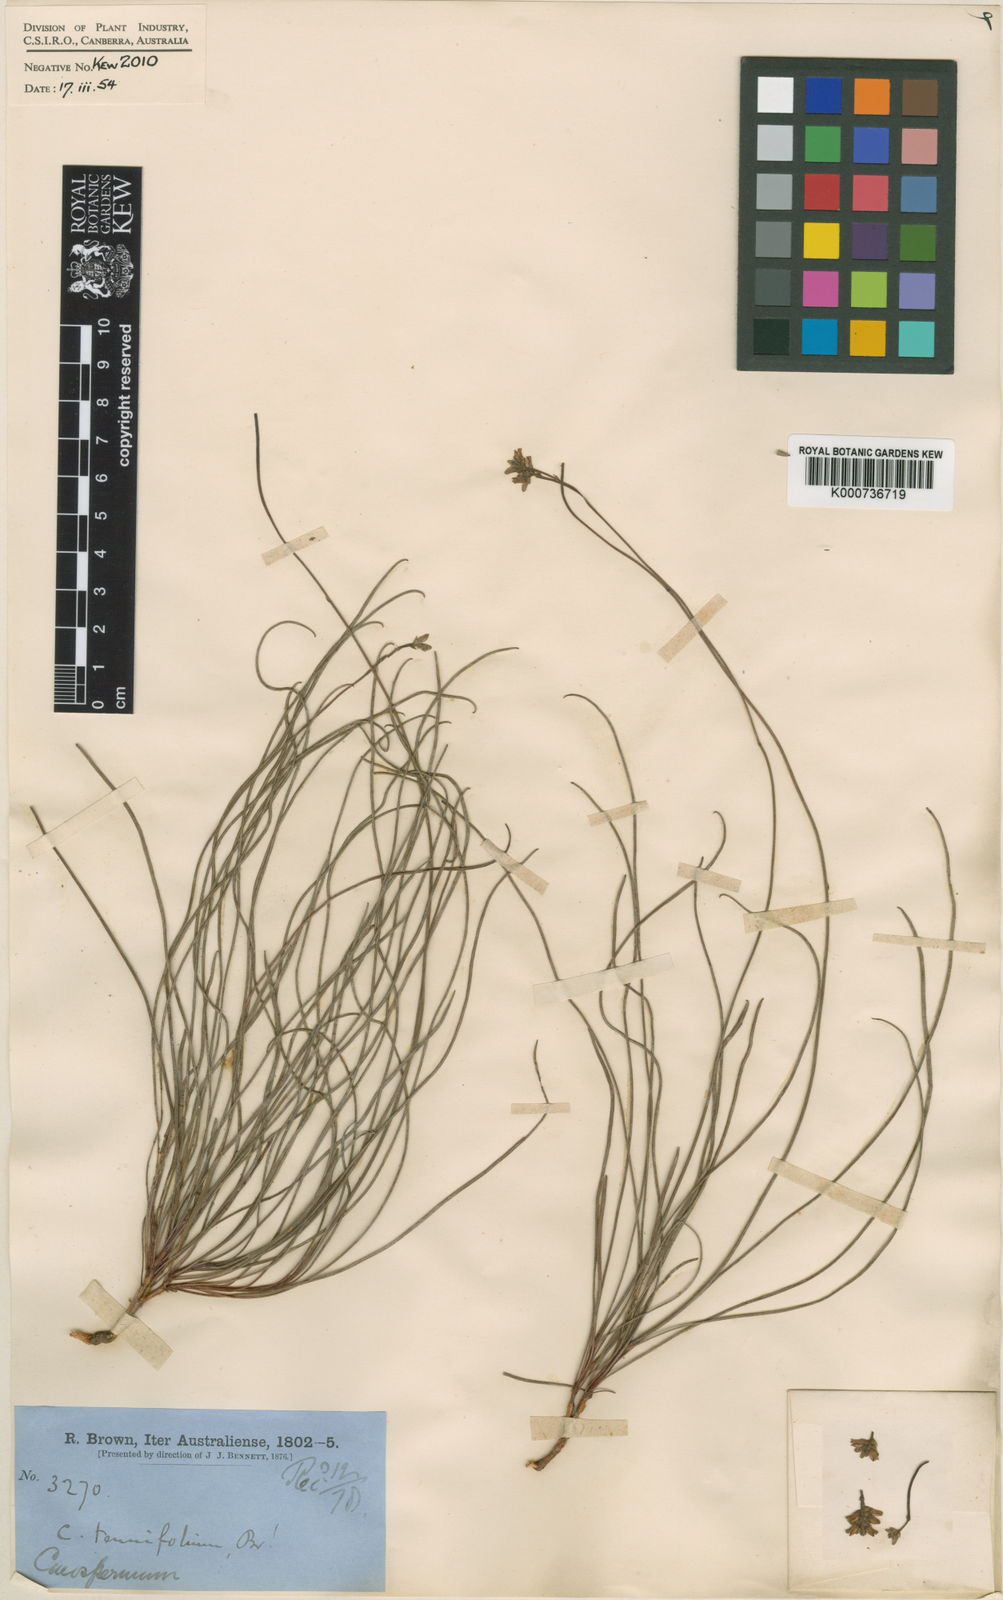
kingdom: Plantae
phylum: Tracheophyta
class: Magnoliopsida
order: Proteales
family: Proteaceae
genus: Conospermum
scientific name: Conospermum tenuifolium
